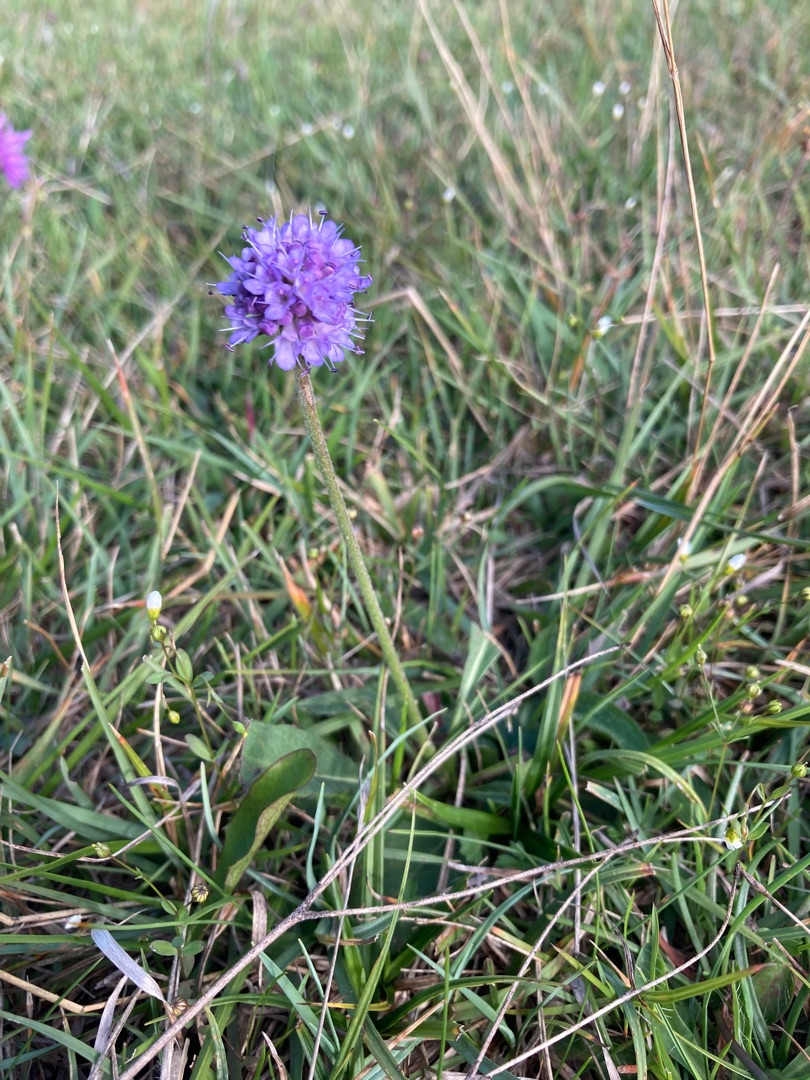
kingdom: Plantae
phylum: Tracheophyta
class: Magnoliopsida
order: Dipsacales
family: Caprifoliaceae
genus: Succisa
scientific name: Succisa pratensis
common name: Djævelsbid
